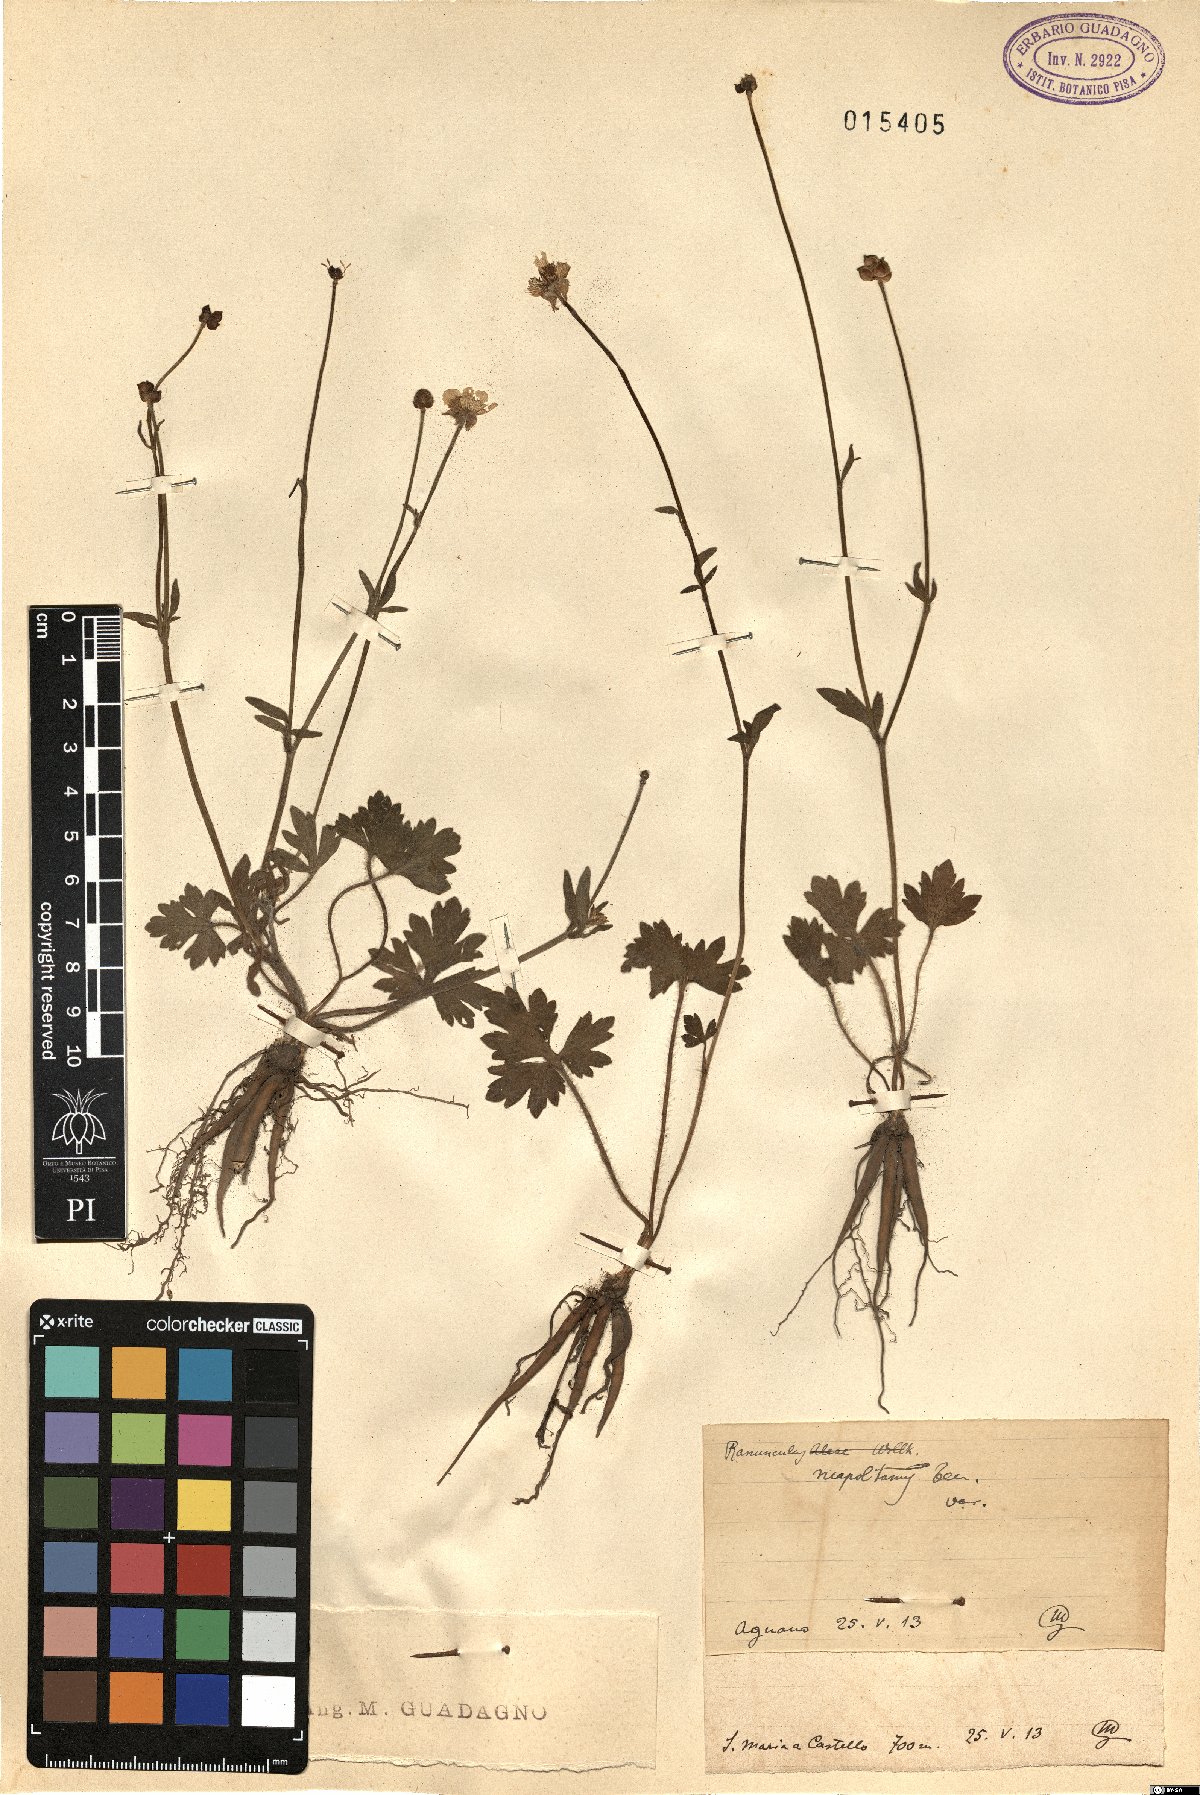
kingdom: Plantae
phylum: Tracheophyta
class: Magnoliopsida
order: Ranunculales
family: Ranunculaceae
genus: Ranunculus
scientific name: Ranunculus neapolitanus
